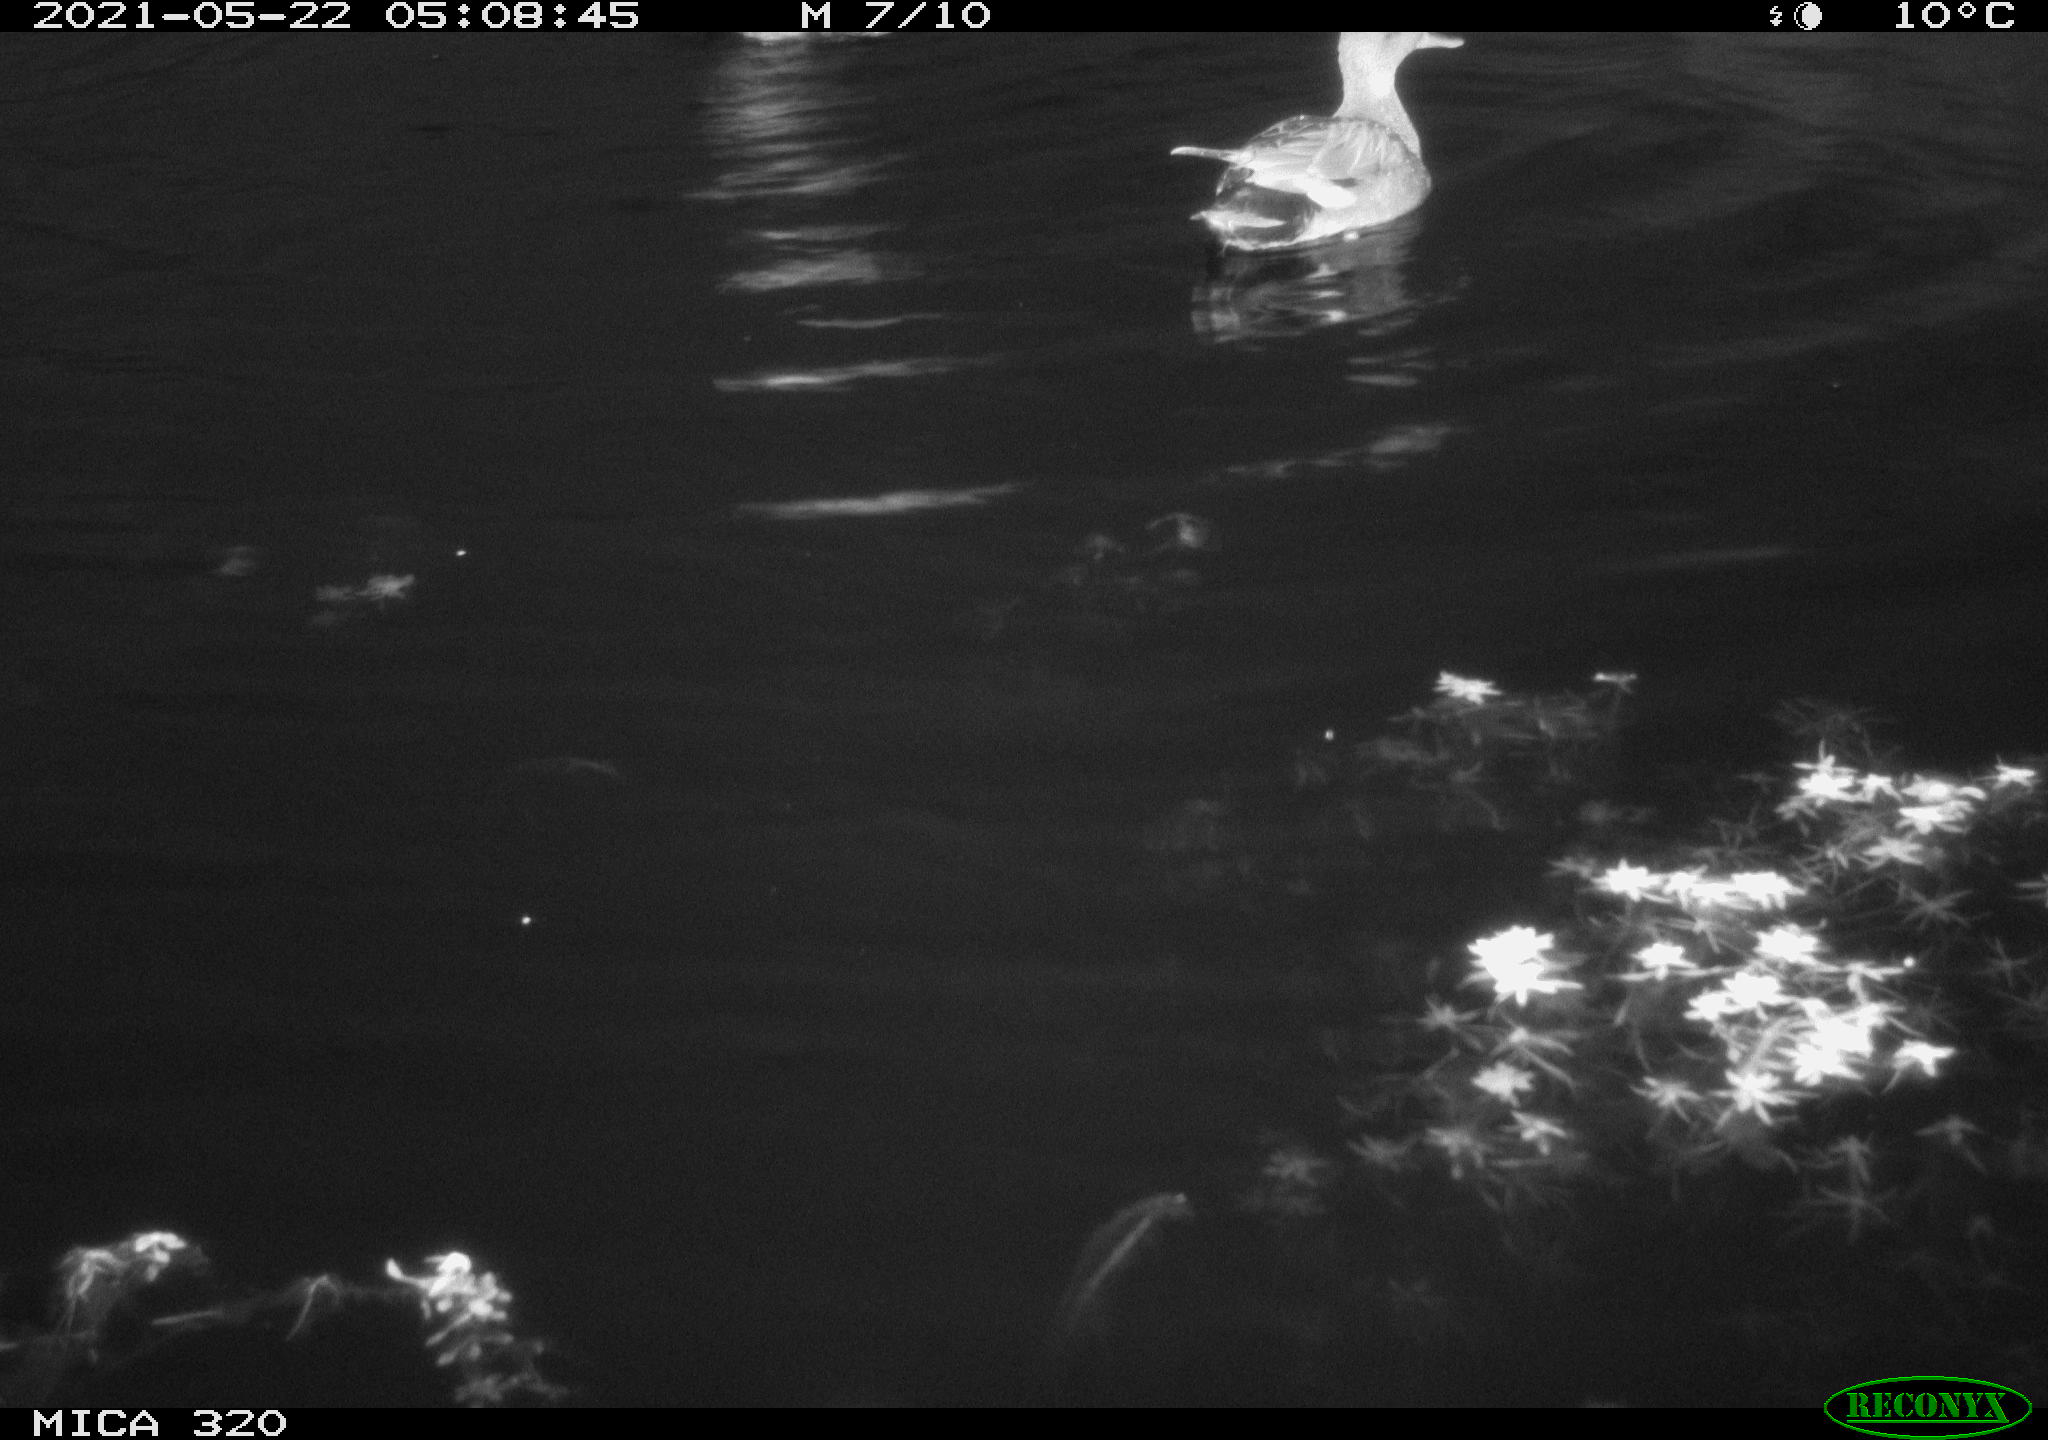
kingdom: Animalia
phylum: Chordata
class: Aves
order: Anseriformes
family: Anatidae
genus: Mareca
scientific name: Mareca strepera
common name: Gadwall
